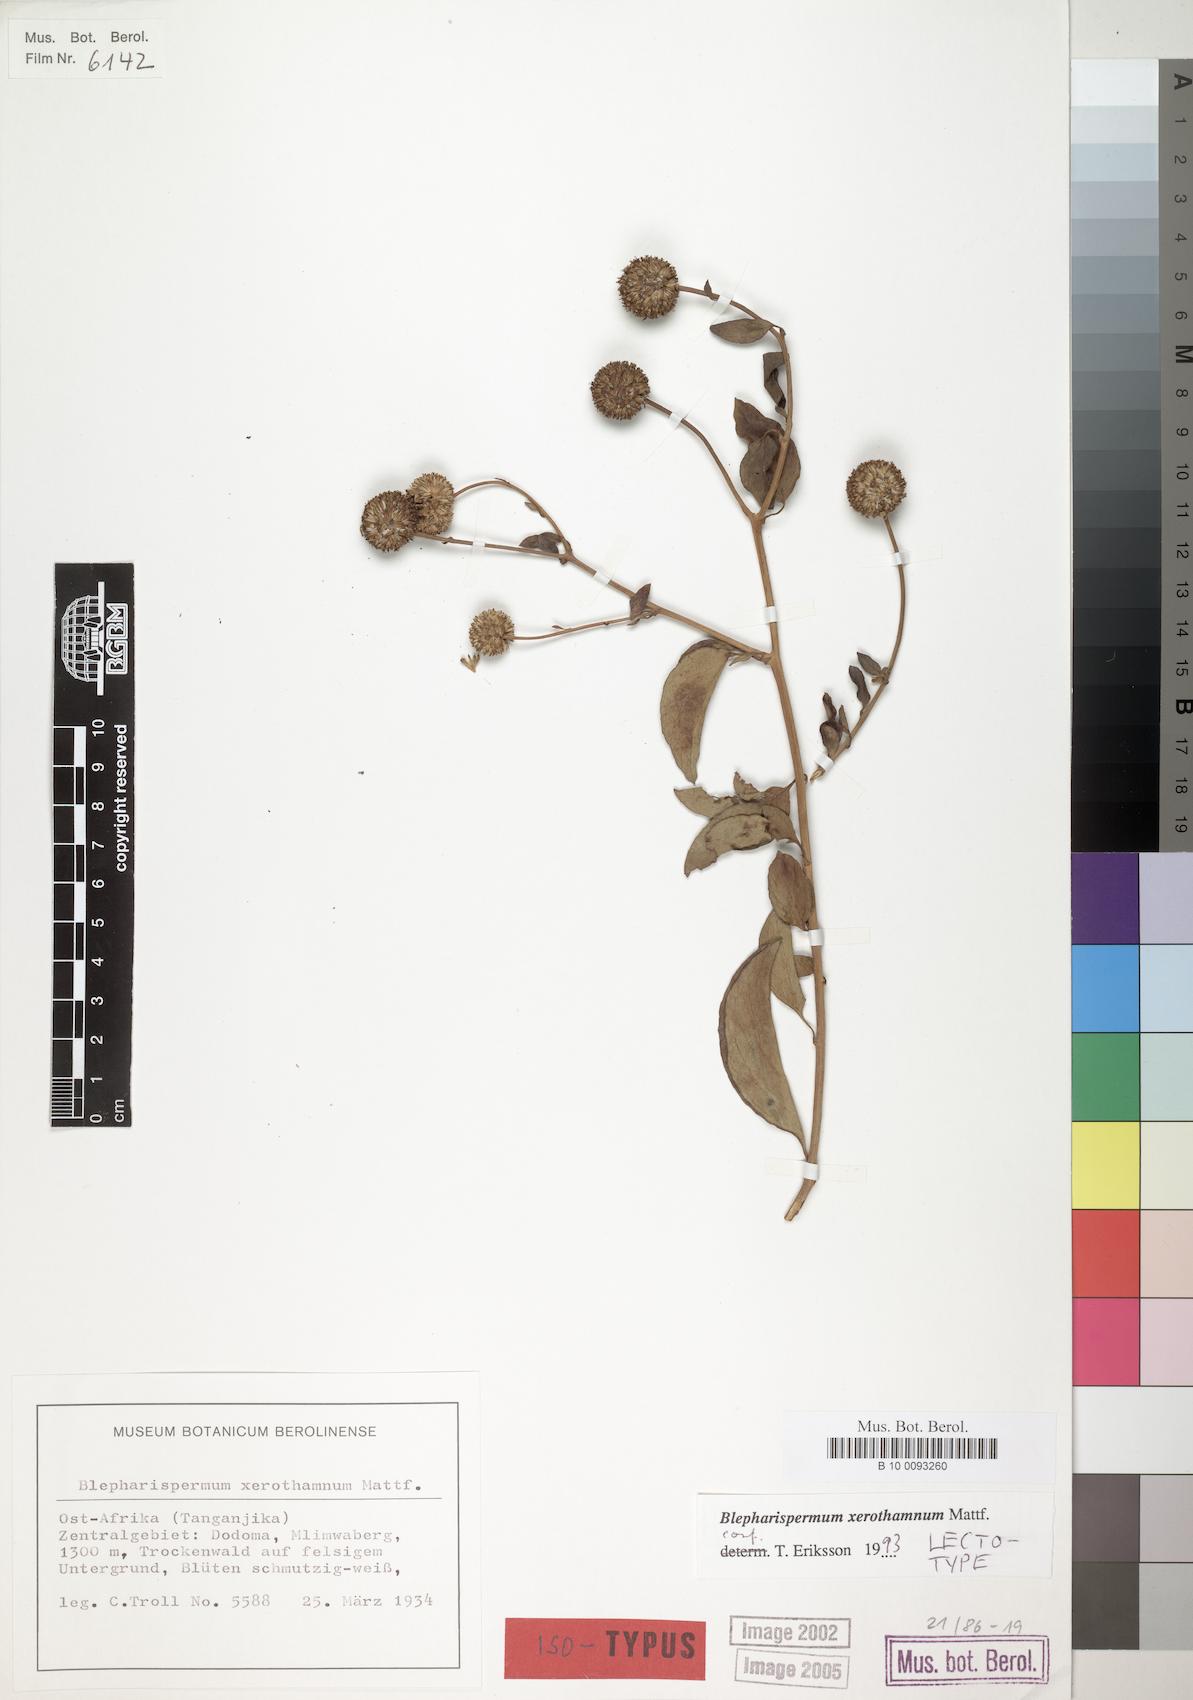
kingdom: Plantae
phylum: Tracheophyta
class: Magnoliopsida
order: Asterales
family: Asteraceae
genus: Blepharispermum
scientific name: Blepharispermum xerothamnum
